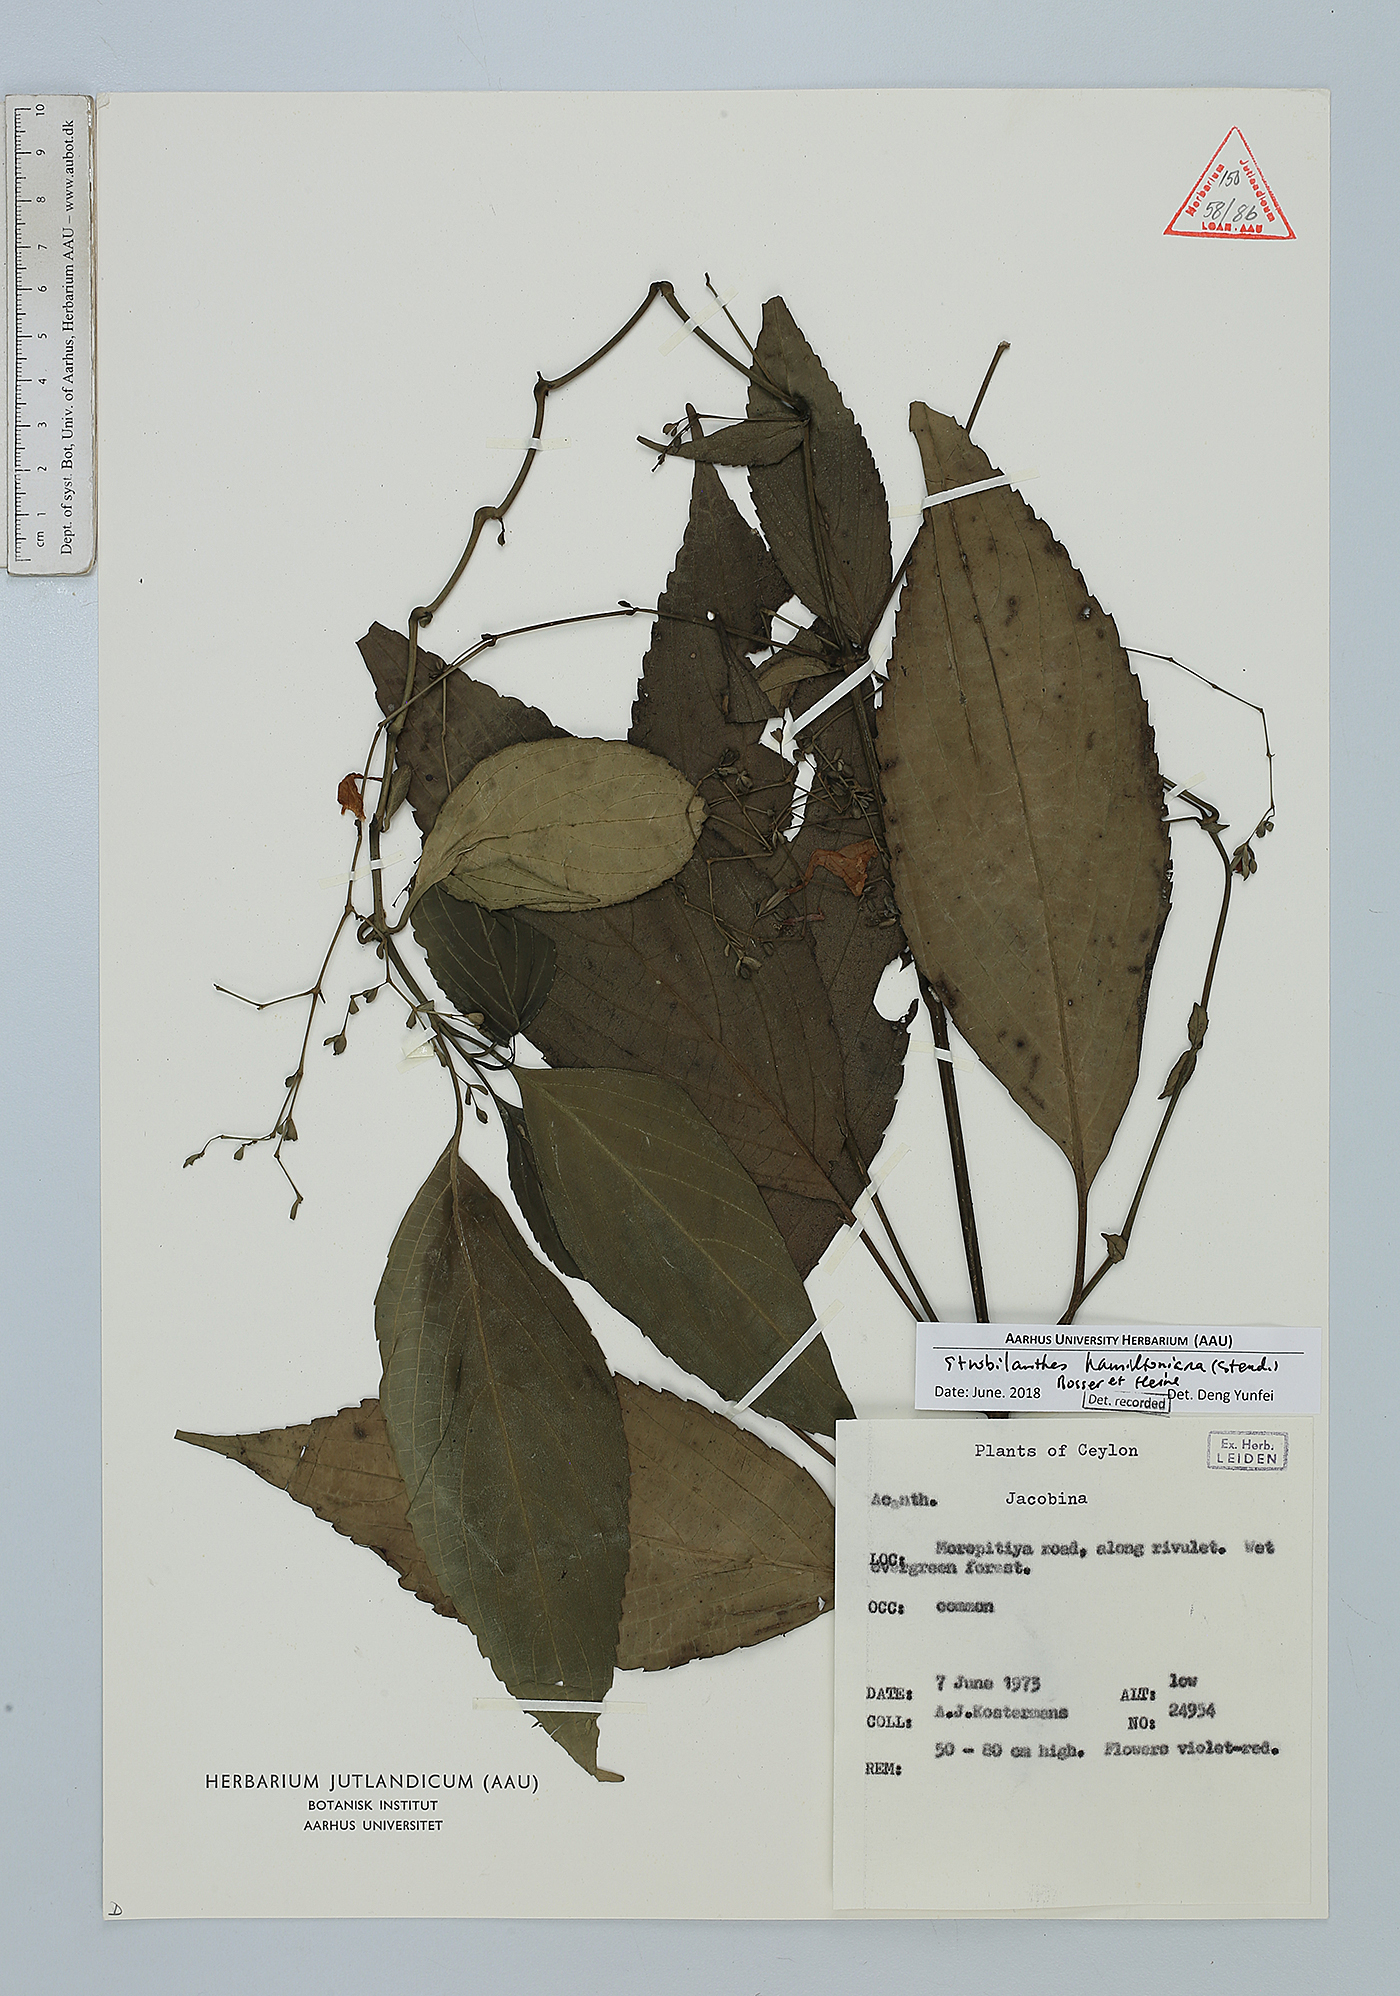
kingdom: Plantae
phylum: Tracheophyta
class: Magnoliopsida
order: Lamiales
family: Acanthaceae
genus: Strobilanthes
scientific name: Strobilanthes hamiltoniana
